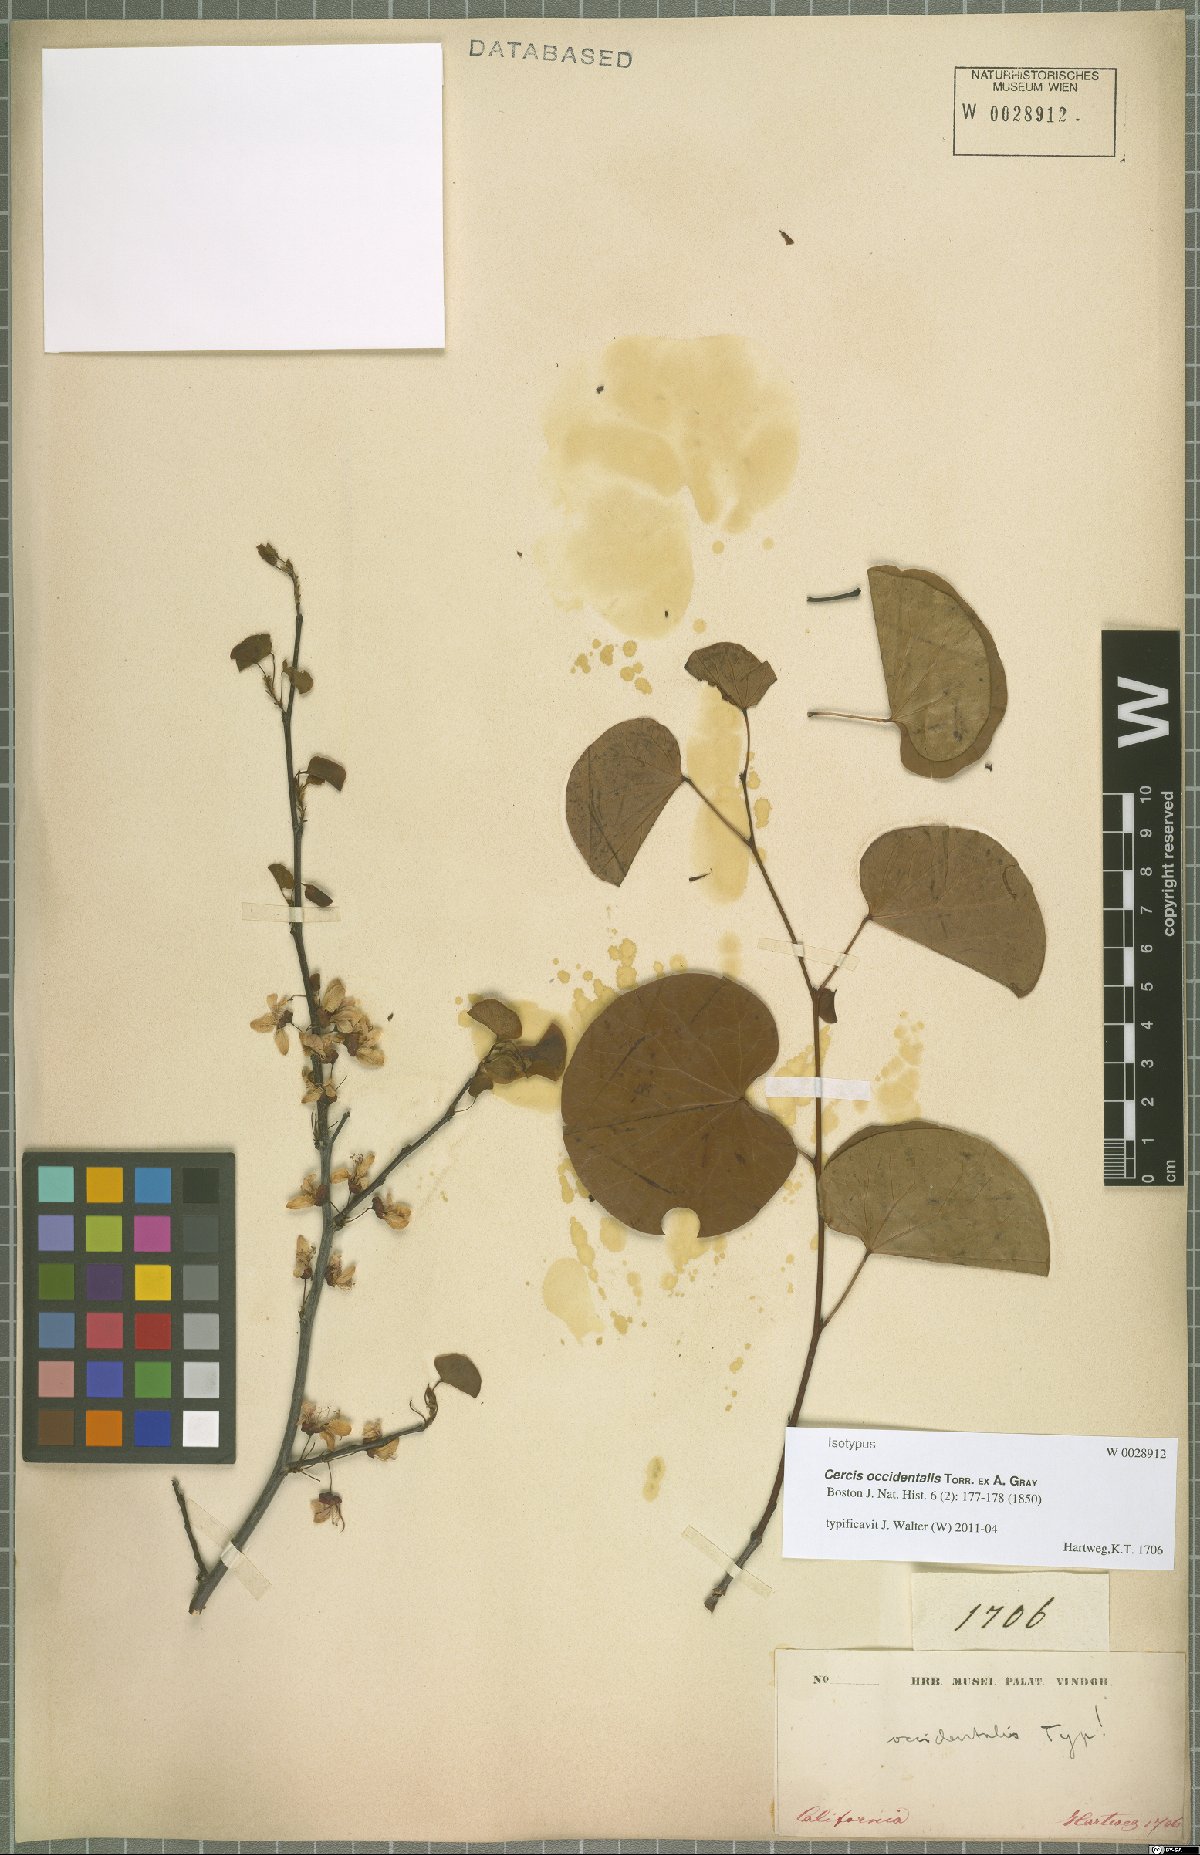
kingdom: Plantae
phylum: Tracheophyta
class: Magnoliopsida
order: Fabales
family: Fabaceae
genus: Cercis
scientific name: Cercis occidentalis
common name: California redbud
